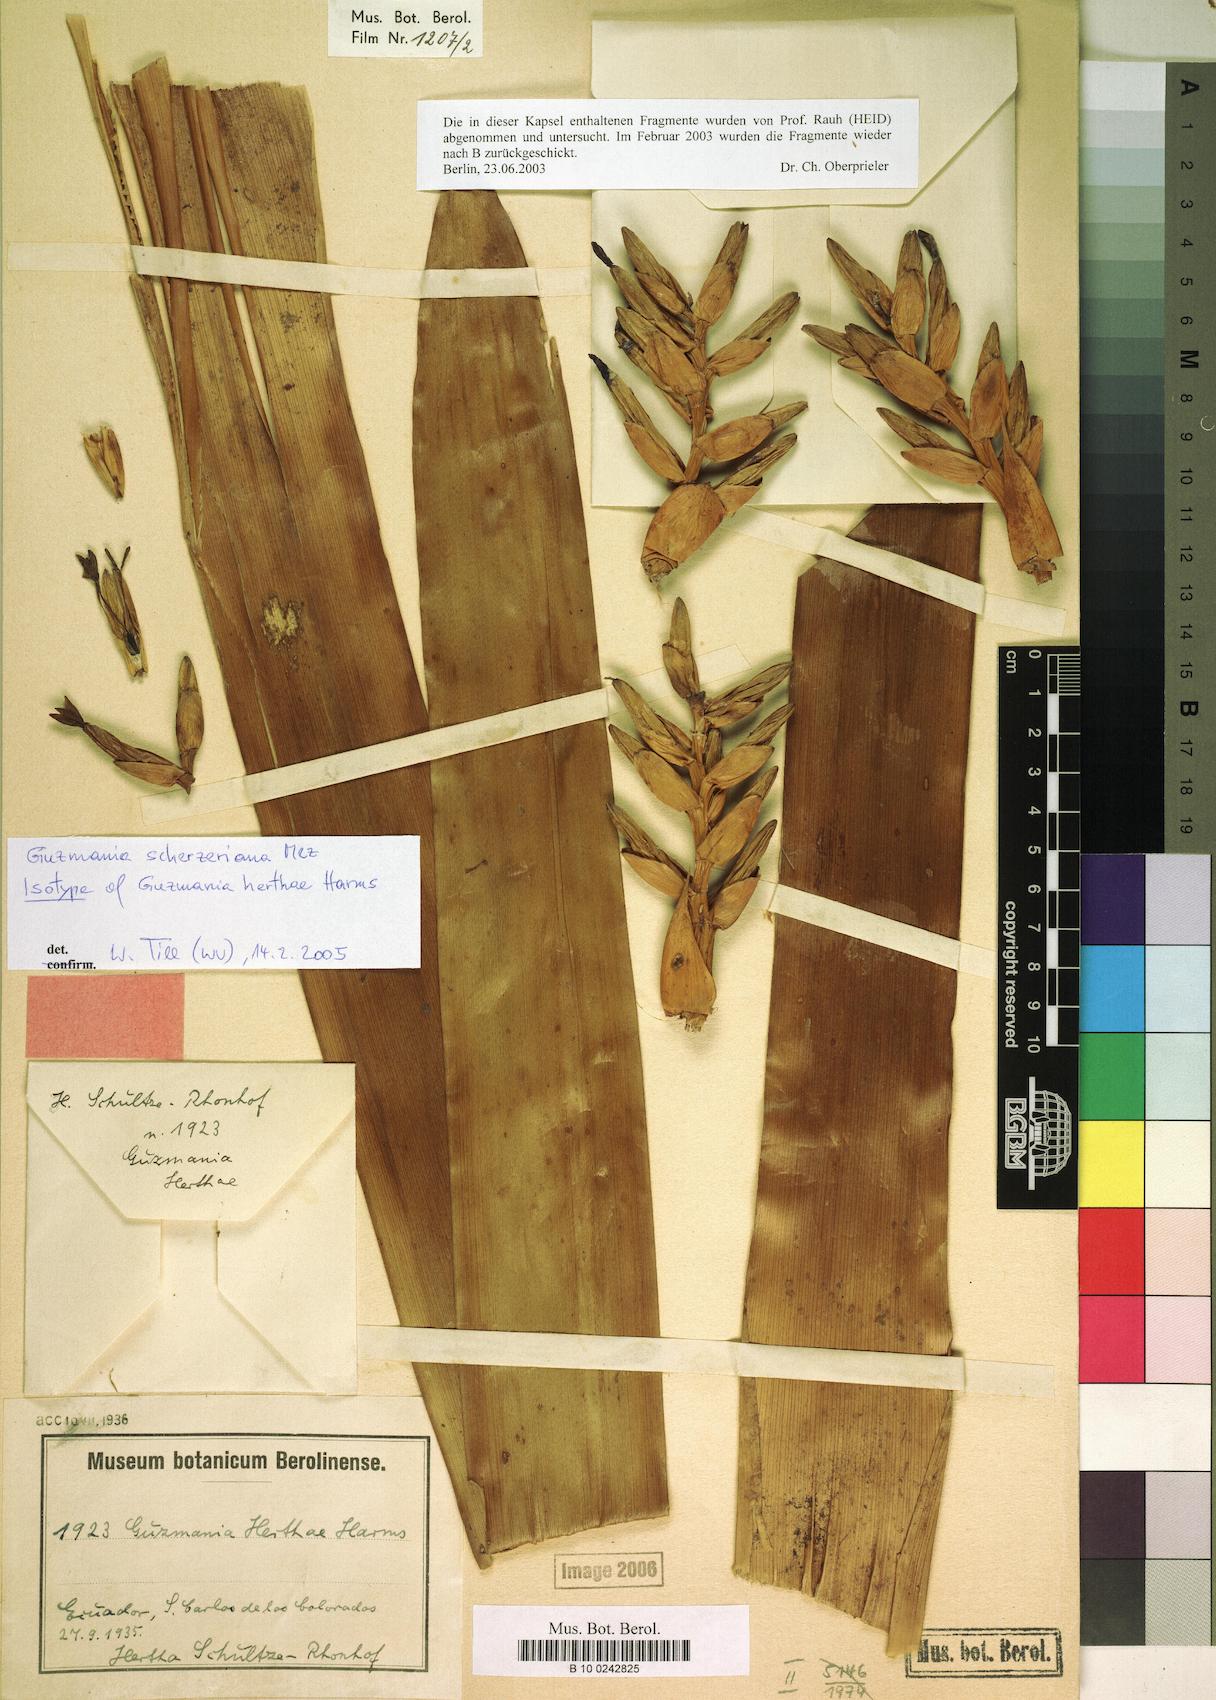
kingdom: Plantae
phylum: Tracheophyta
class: Liliopsida
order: Poales
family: Bromeliaceae
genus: Guzmania
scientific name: Guzmania scherzeriana
